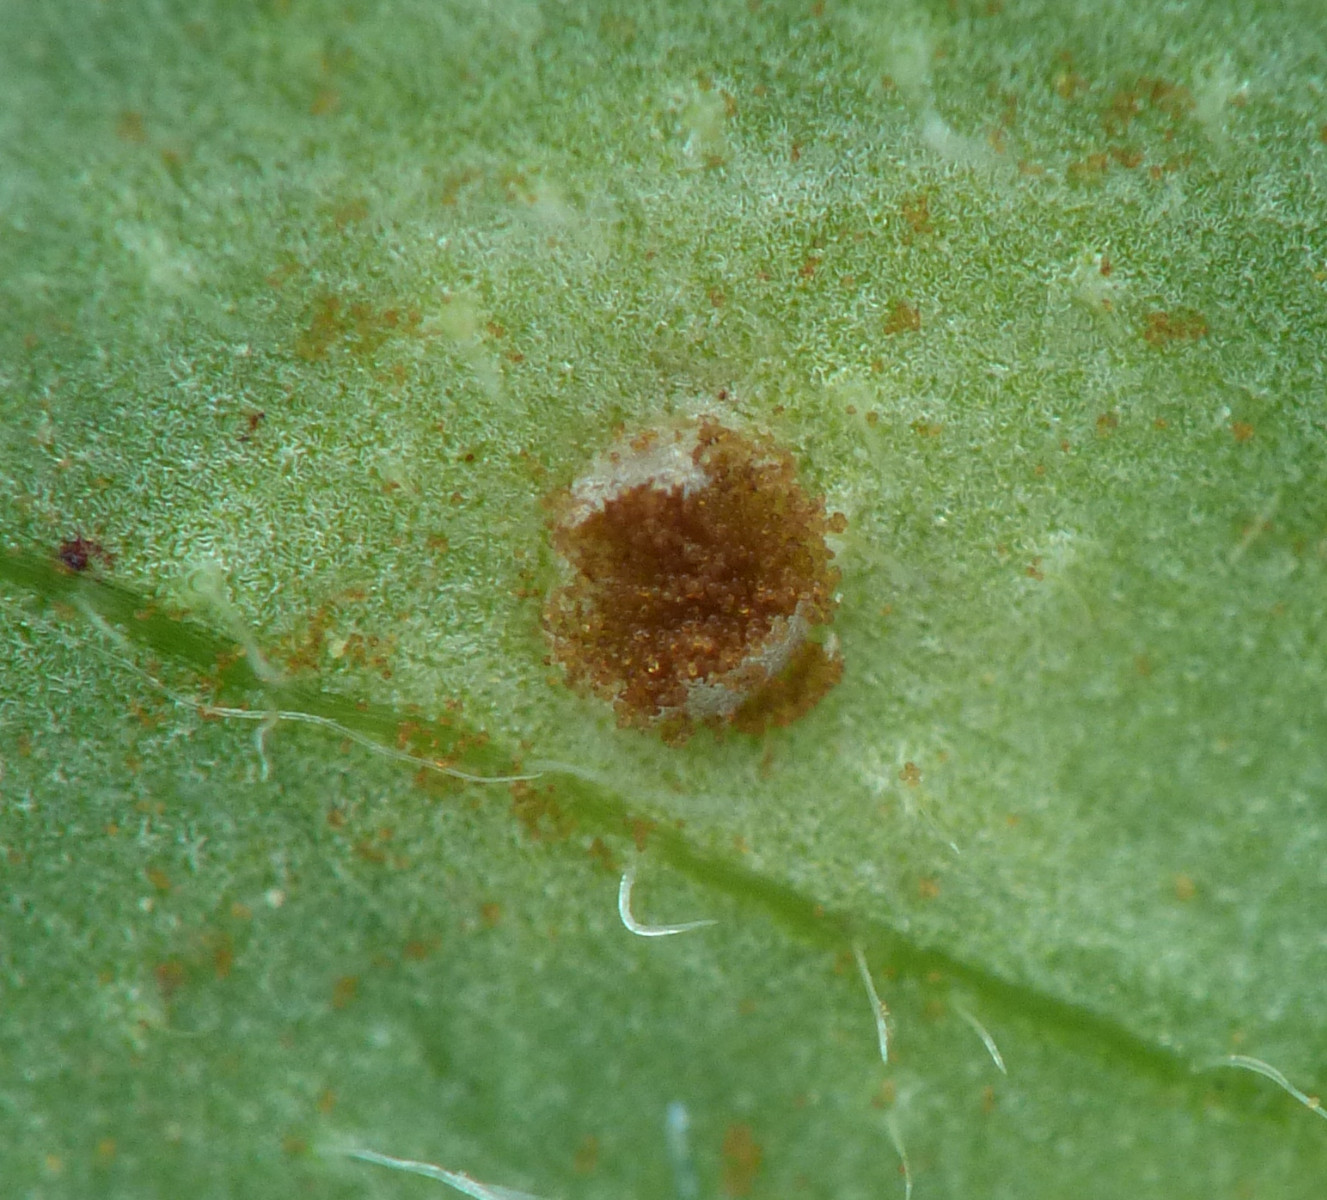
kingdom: Fungi
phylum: Basidiomycota
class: Pucciniomycetes
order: Pucciniales
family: Pucciniaceae
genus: Uromyces
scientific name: Uromyces viciae-fabae
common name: Broad bean rust
